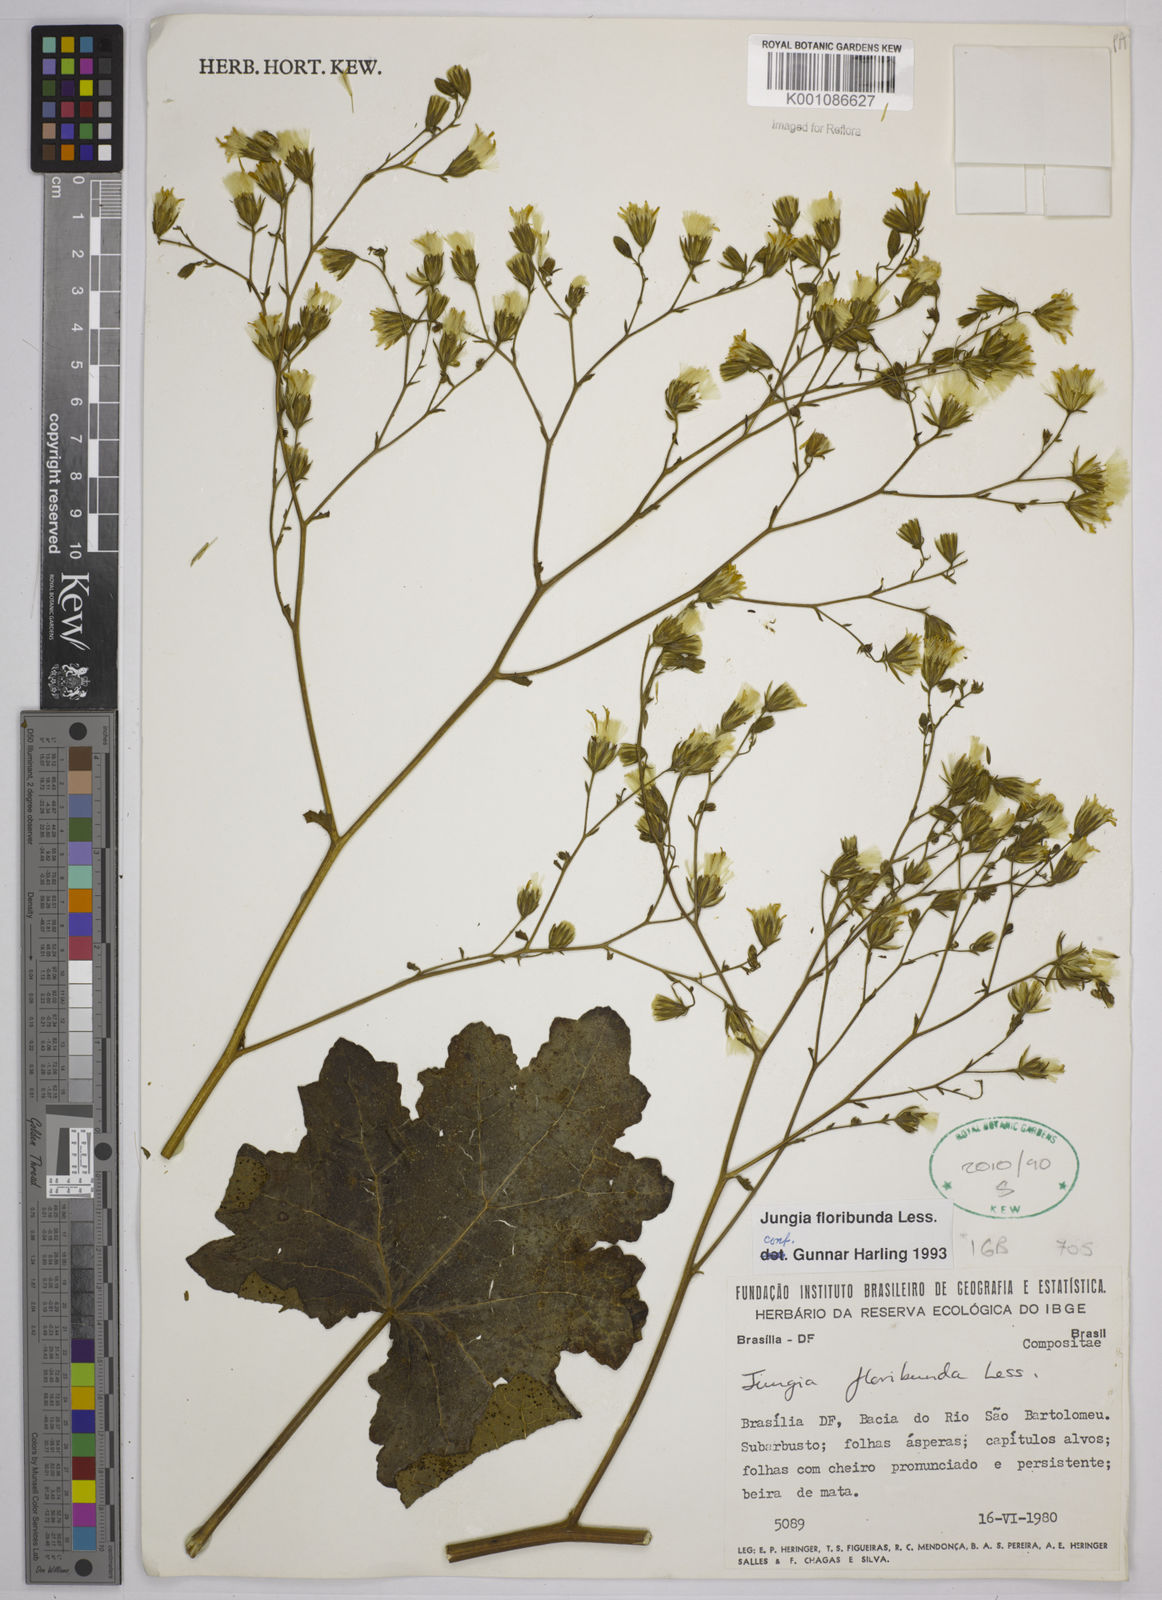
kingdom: Plantae
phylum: Tracheophyta
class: Magnoliopsida
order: Asterales
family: Asteraceae
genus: Jungia
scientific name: Jungia floribunda
